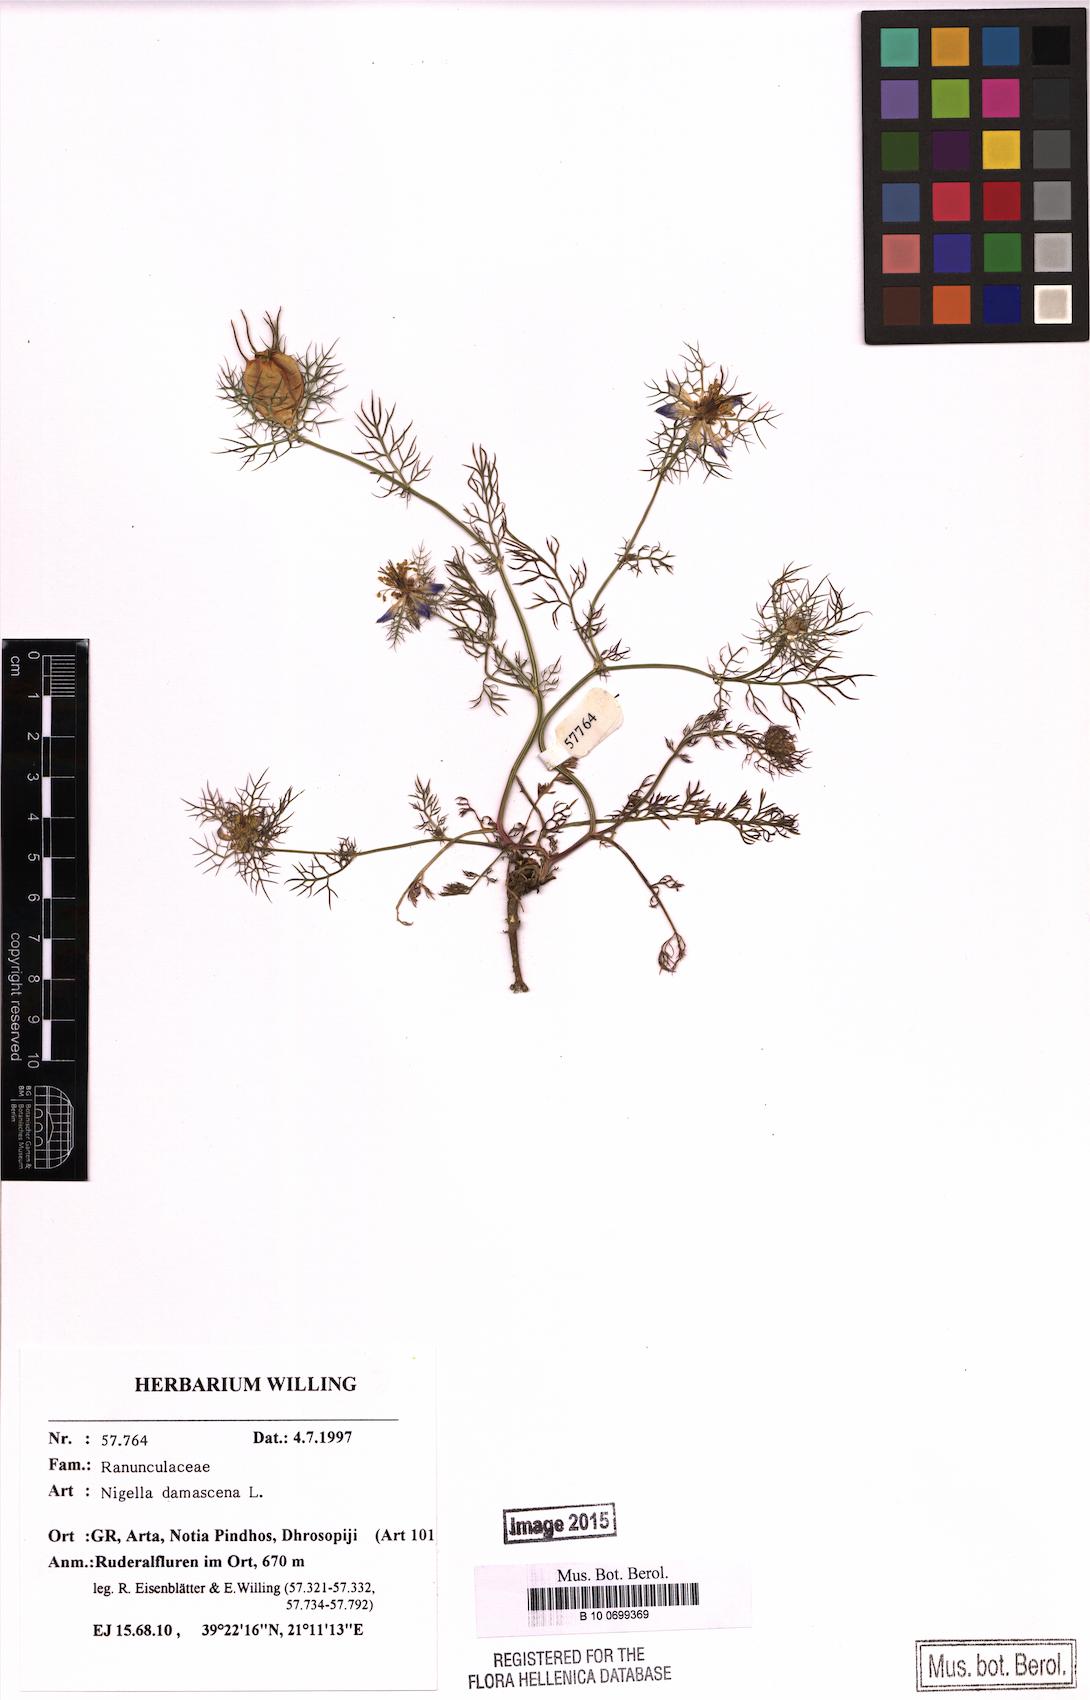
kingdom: Plantae
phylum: Tracheophyta
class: Magnoliopsida
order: Ranunculales
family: Ranunculaceae
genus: Nigella
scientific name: Nigella damascena
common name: Love-in-a-mist
